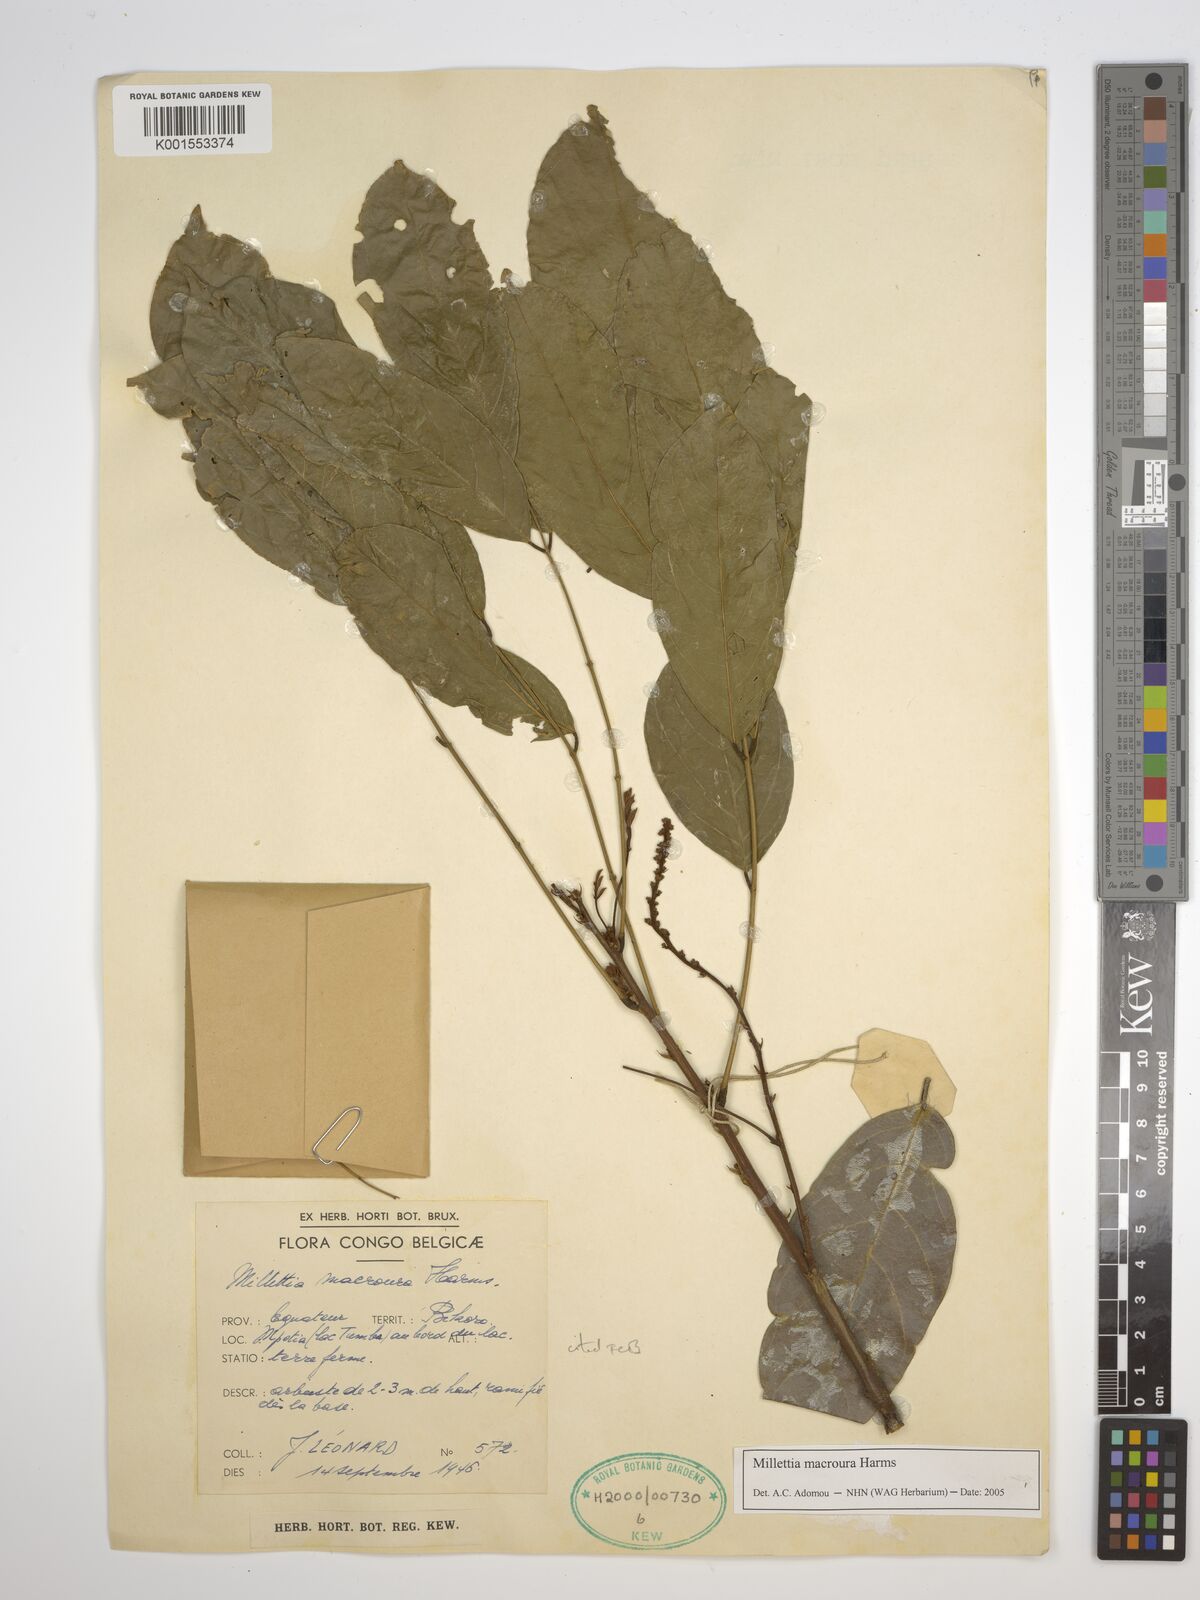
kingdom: Plantae
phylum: Tracheophyta
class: Magnoliopsida
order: Fabales
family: Fabaceae
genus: Millettia
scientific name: Millettia macroura
